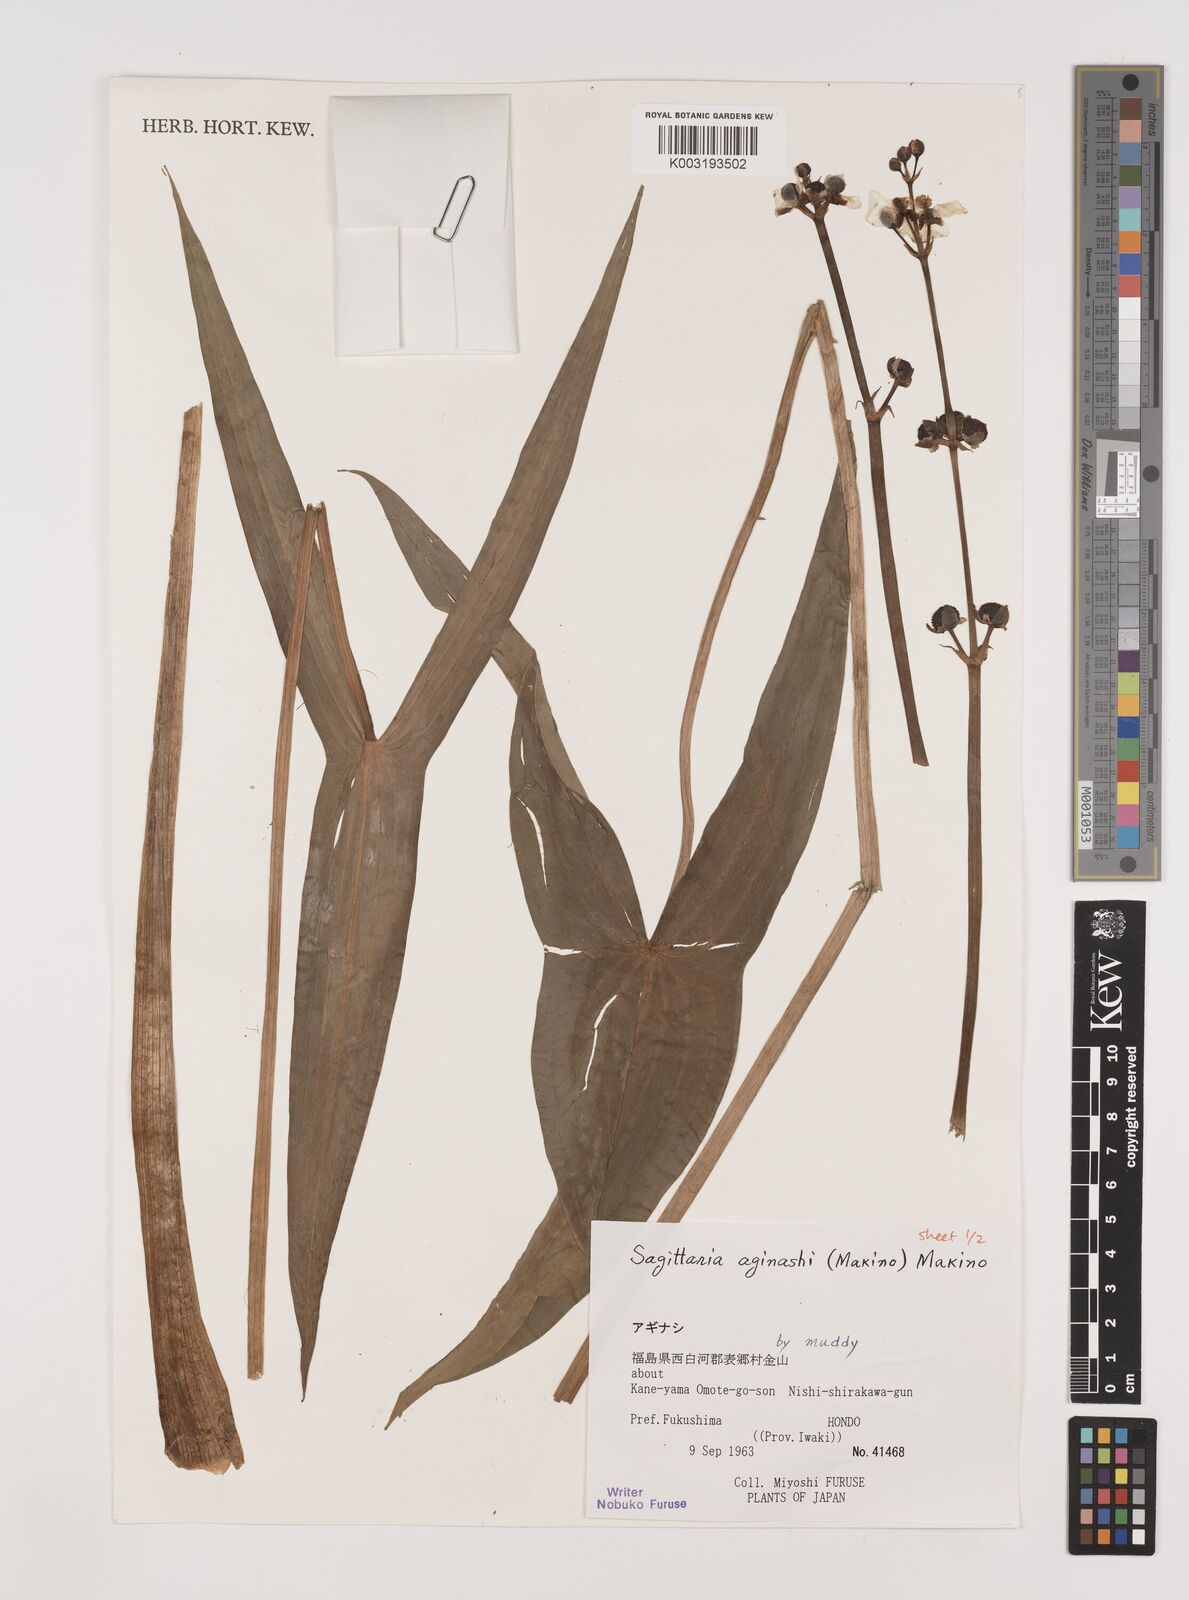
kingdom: Plantae
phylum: Tracheophyta
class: Liliopsida
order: Alismatales
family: Alismataceae
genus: Sagittaria
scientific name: Sagittaria aginashi
